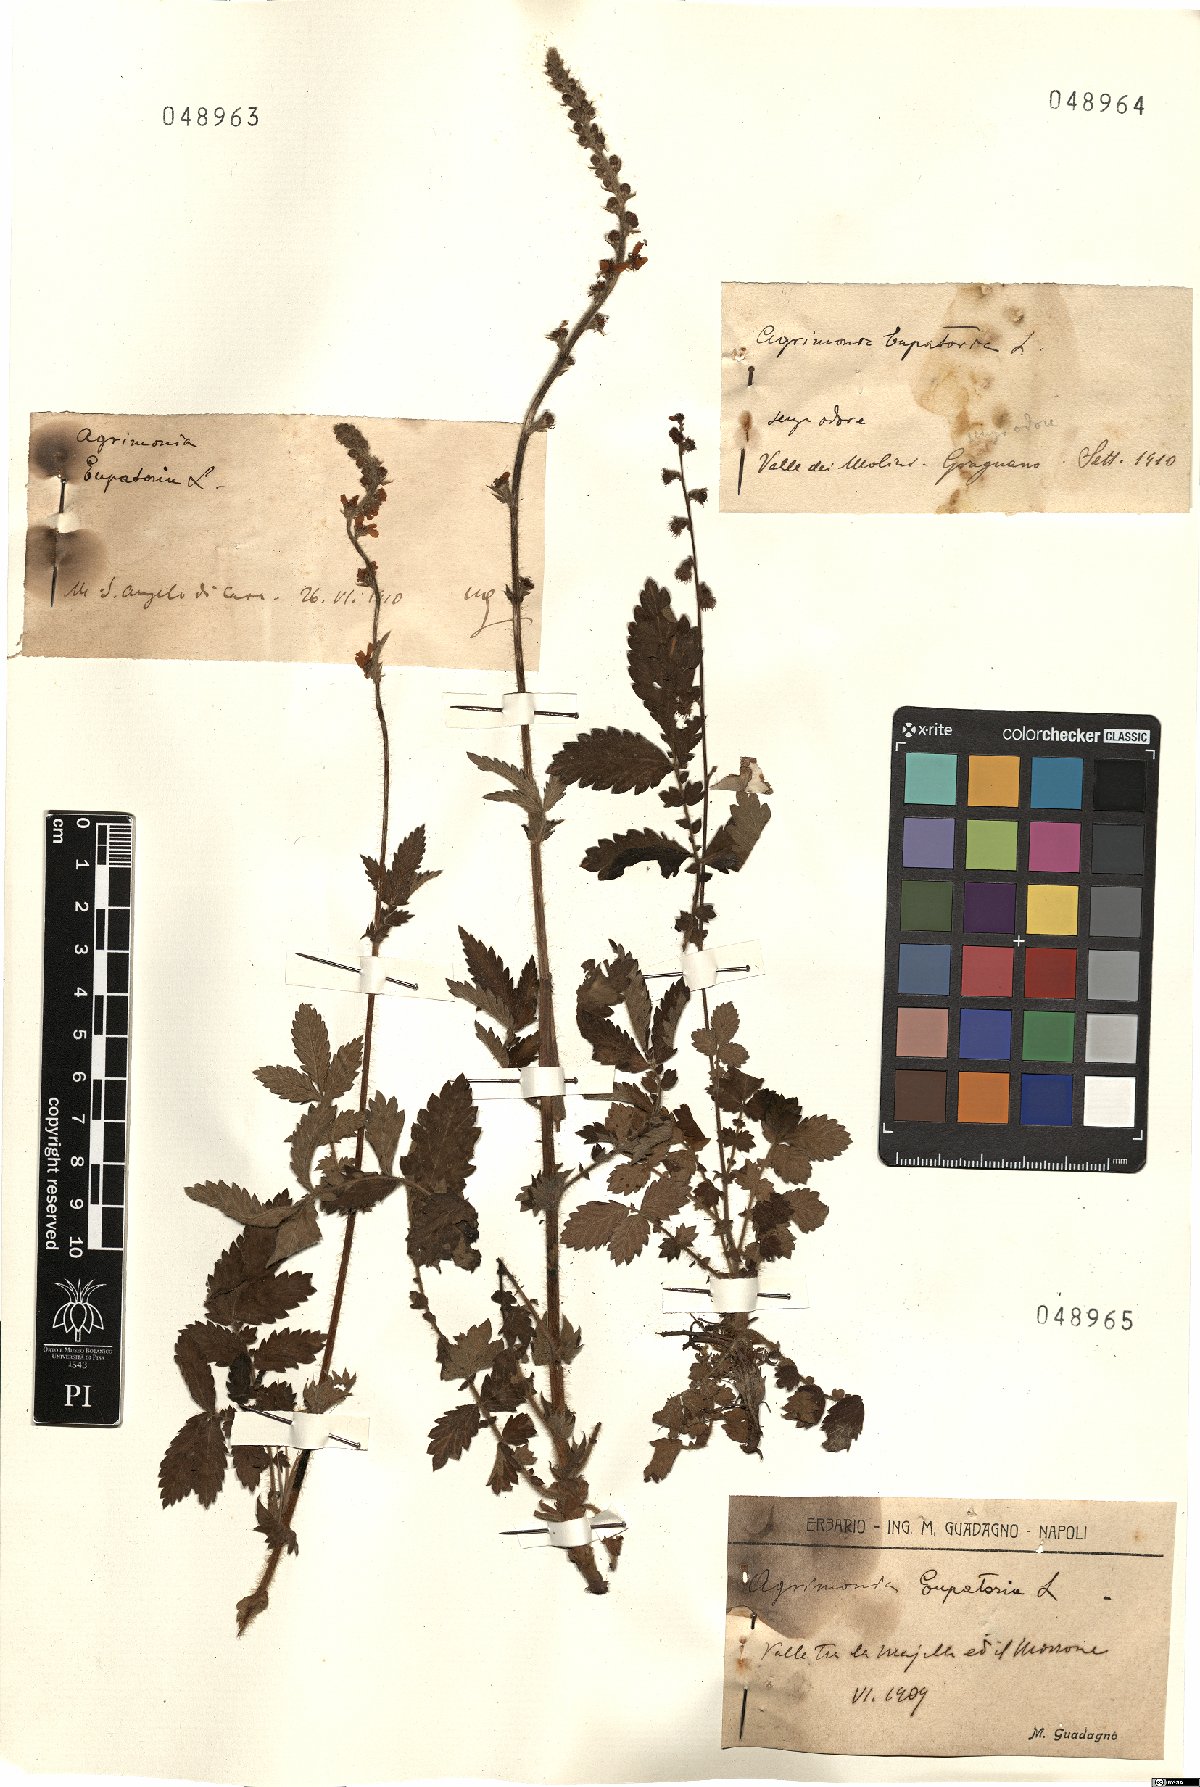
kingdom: Plantae
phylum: Tracheophyta
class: Magnoliopsida
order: Rosales
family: Rosaceae
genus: Agrimonia
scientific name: Agrimonia eupatoria
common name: Agrimony
